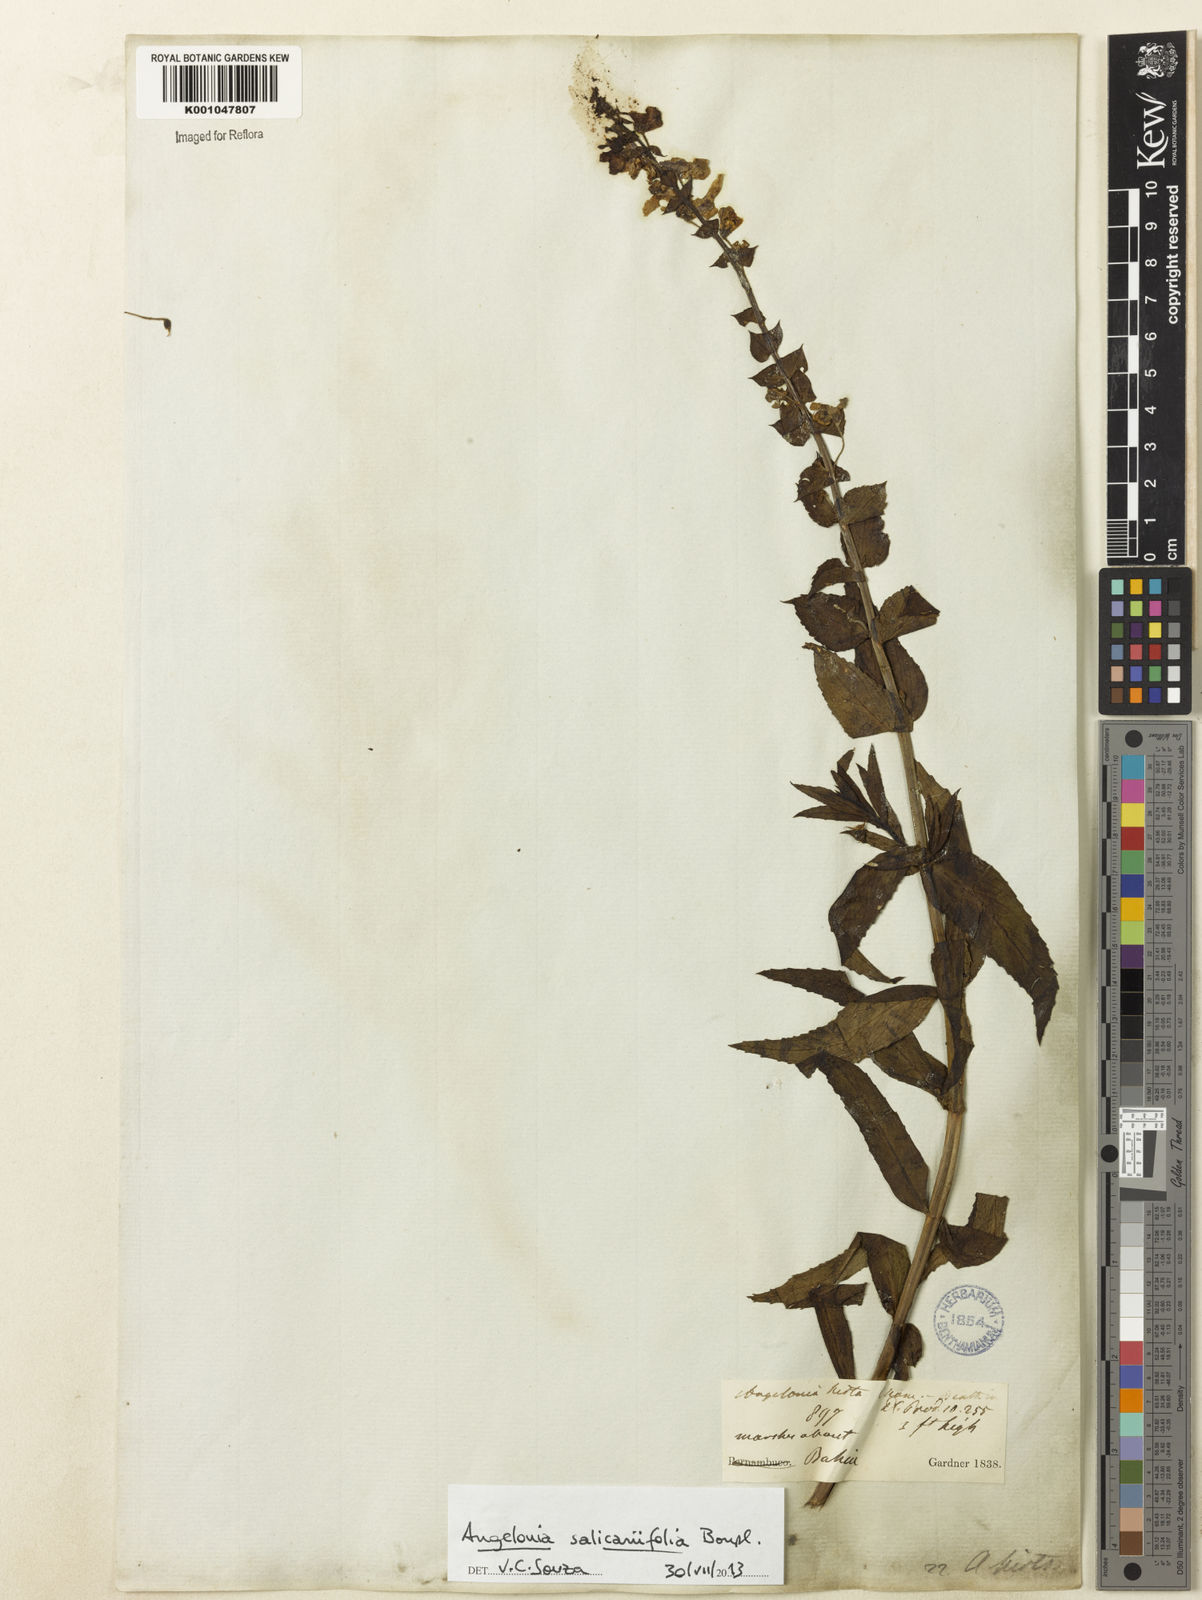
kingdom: Plantae
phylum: Tracheophyta
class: Magnoliopsida
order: Lamiales
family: Plantaginaceae
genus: Angelonia
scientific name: Angelonia salicariifolia
